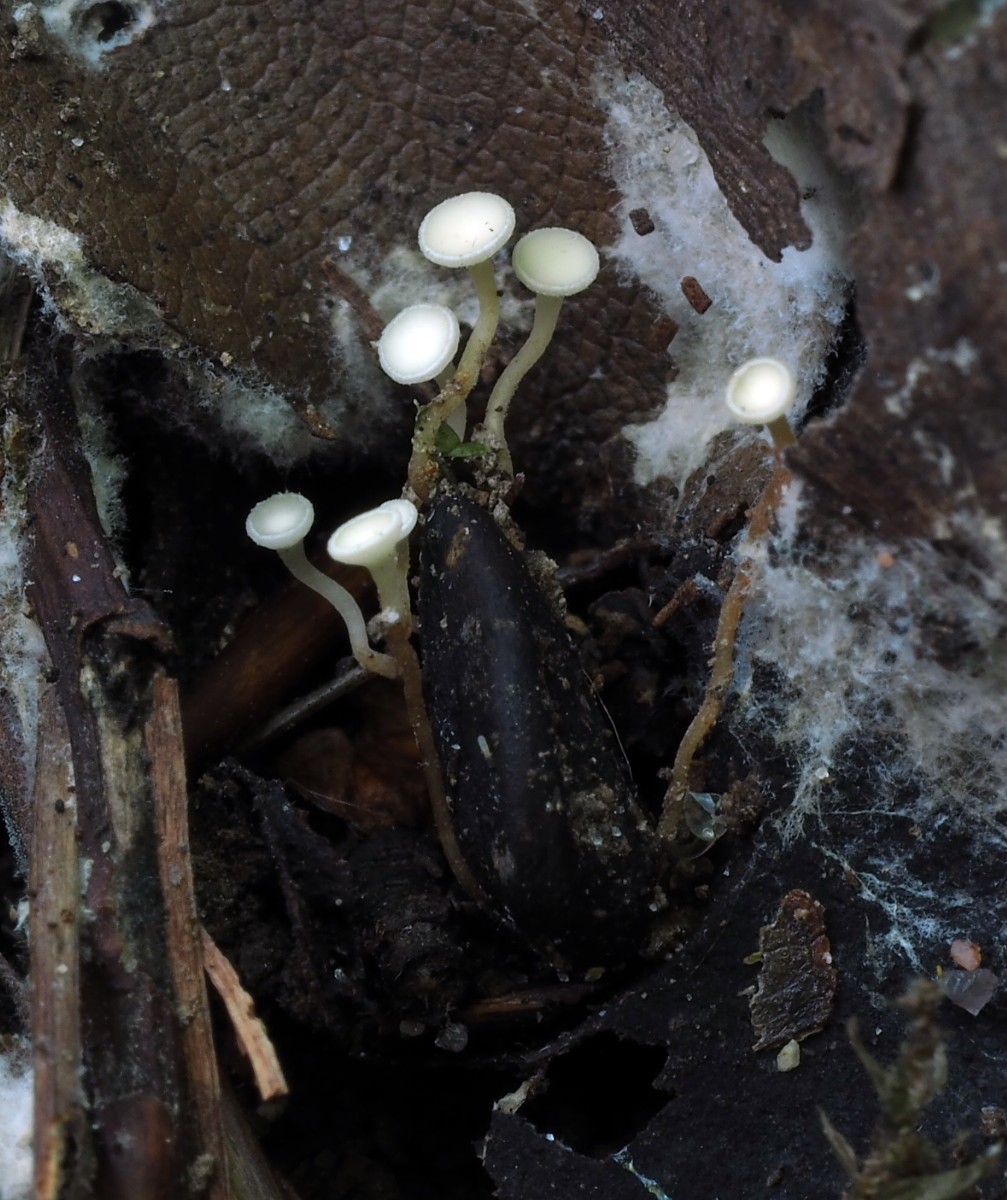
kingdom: Fungi
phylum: Ascomycota
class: Leotiomycetes
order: Helotiales
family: Helotiaceae
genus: Hymenoscyphus
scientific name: Hymenoscyphus
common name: stilkskive
